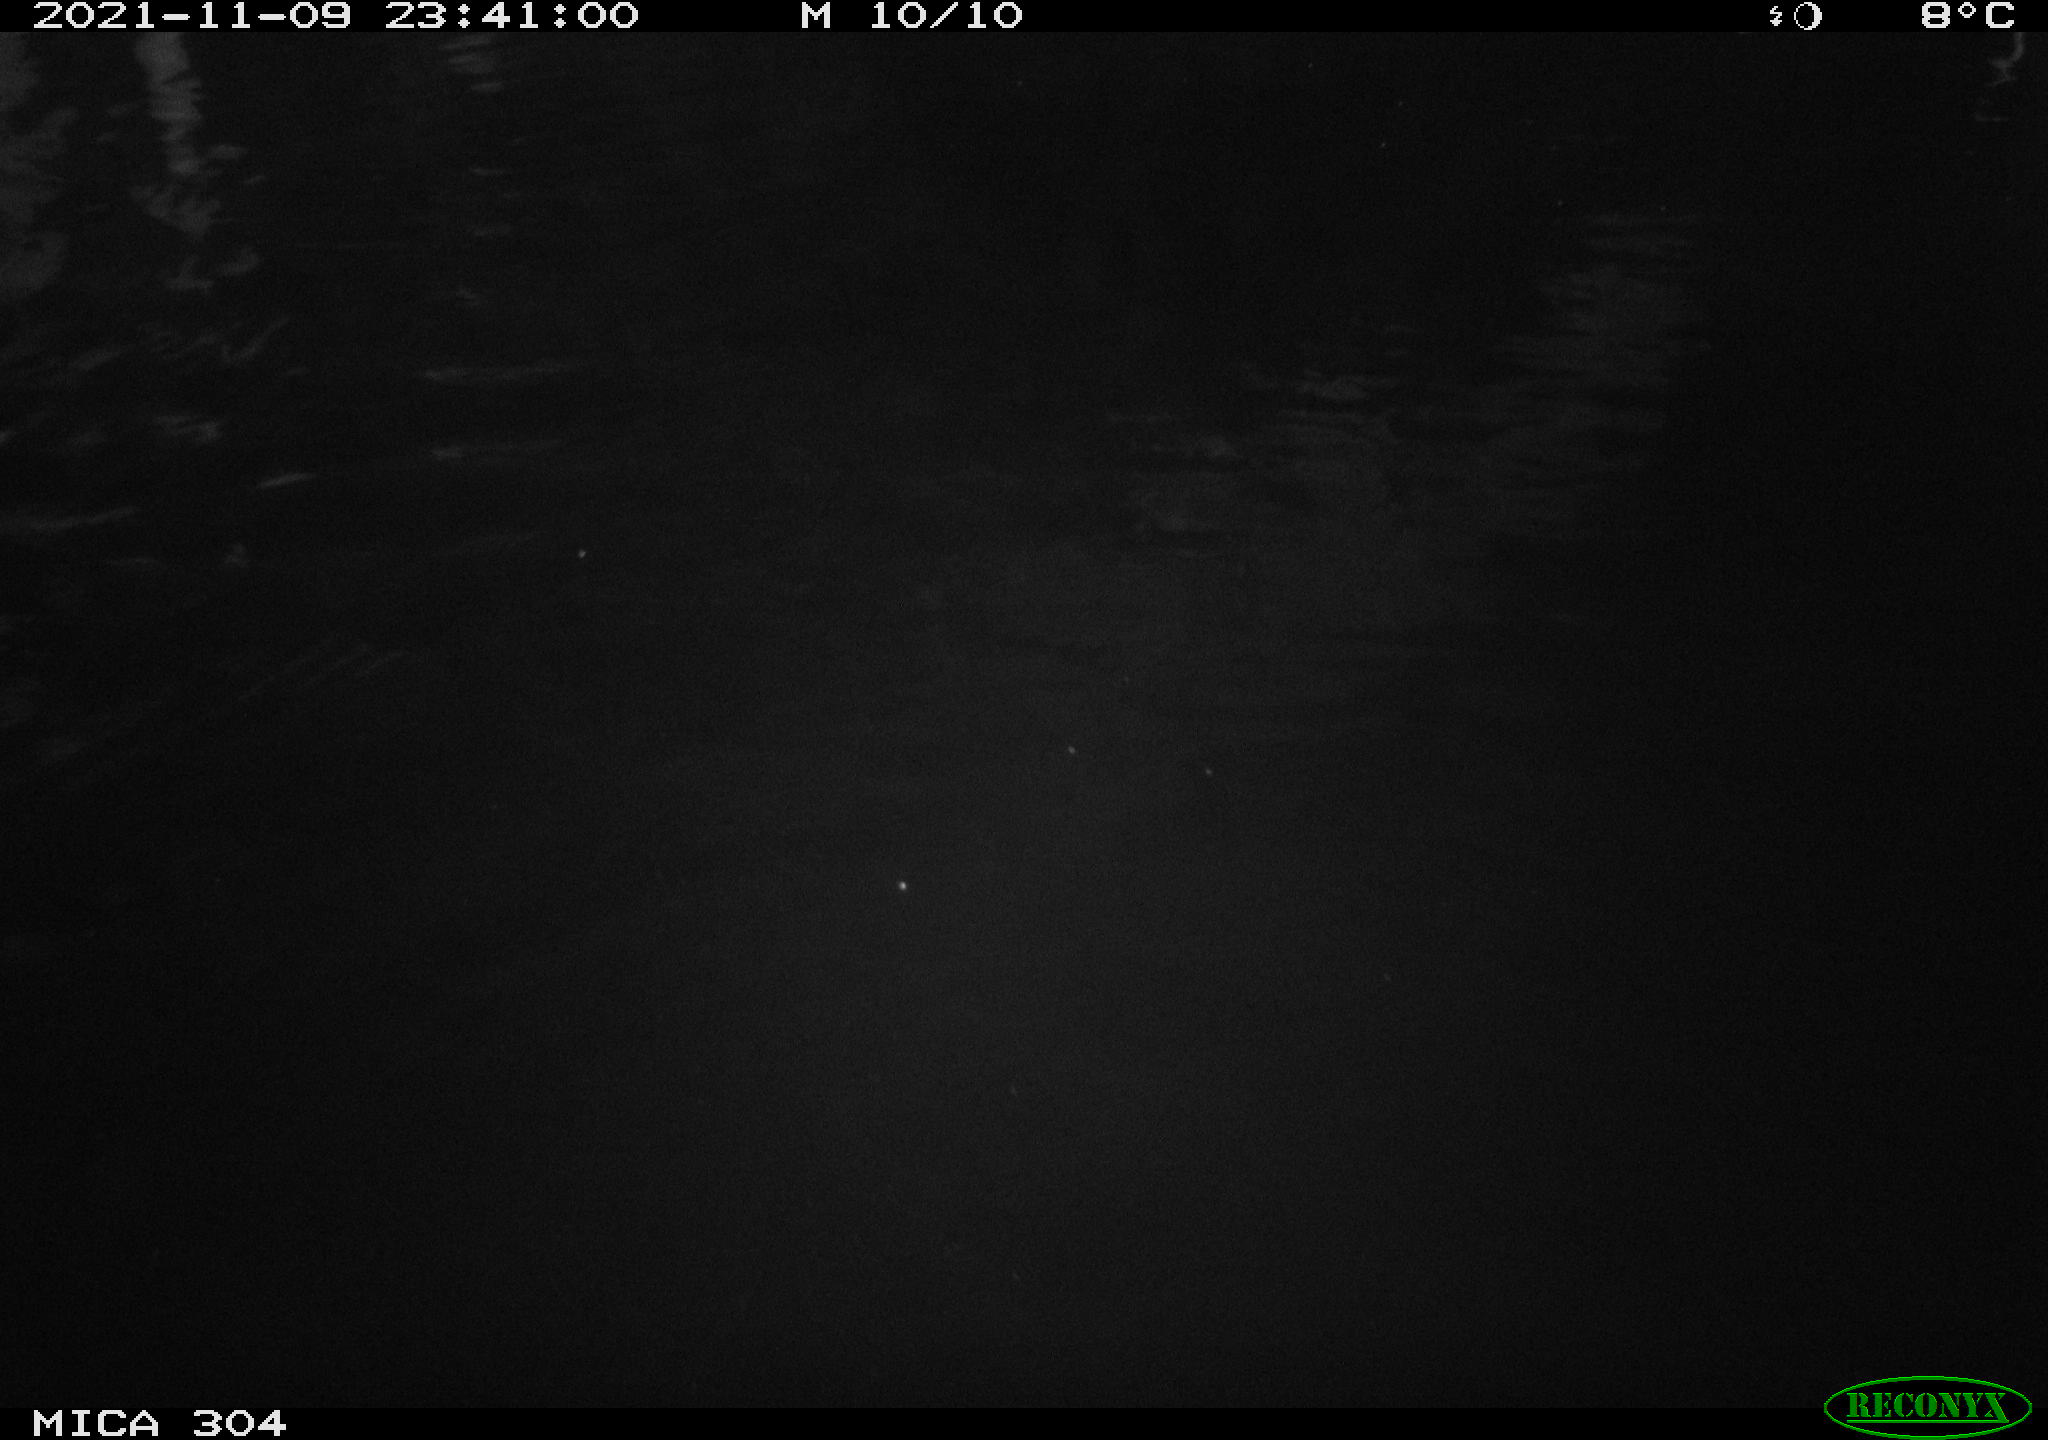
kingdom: Animalia
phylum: Chordata
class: Mammalia
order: Rodentia
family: Cricetidae
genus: Ondatra
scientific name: Ondatra zibethicus
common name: Muskrat
